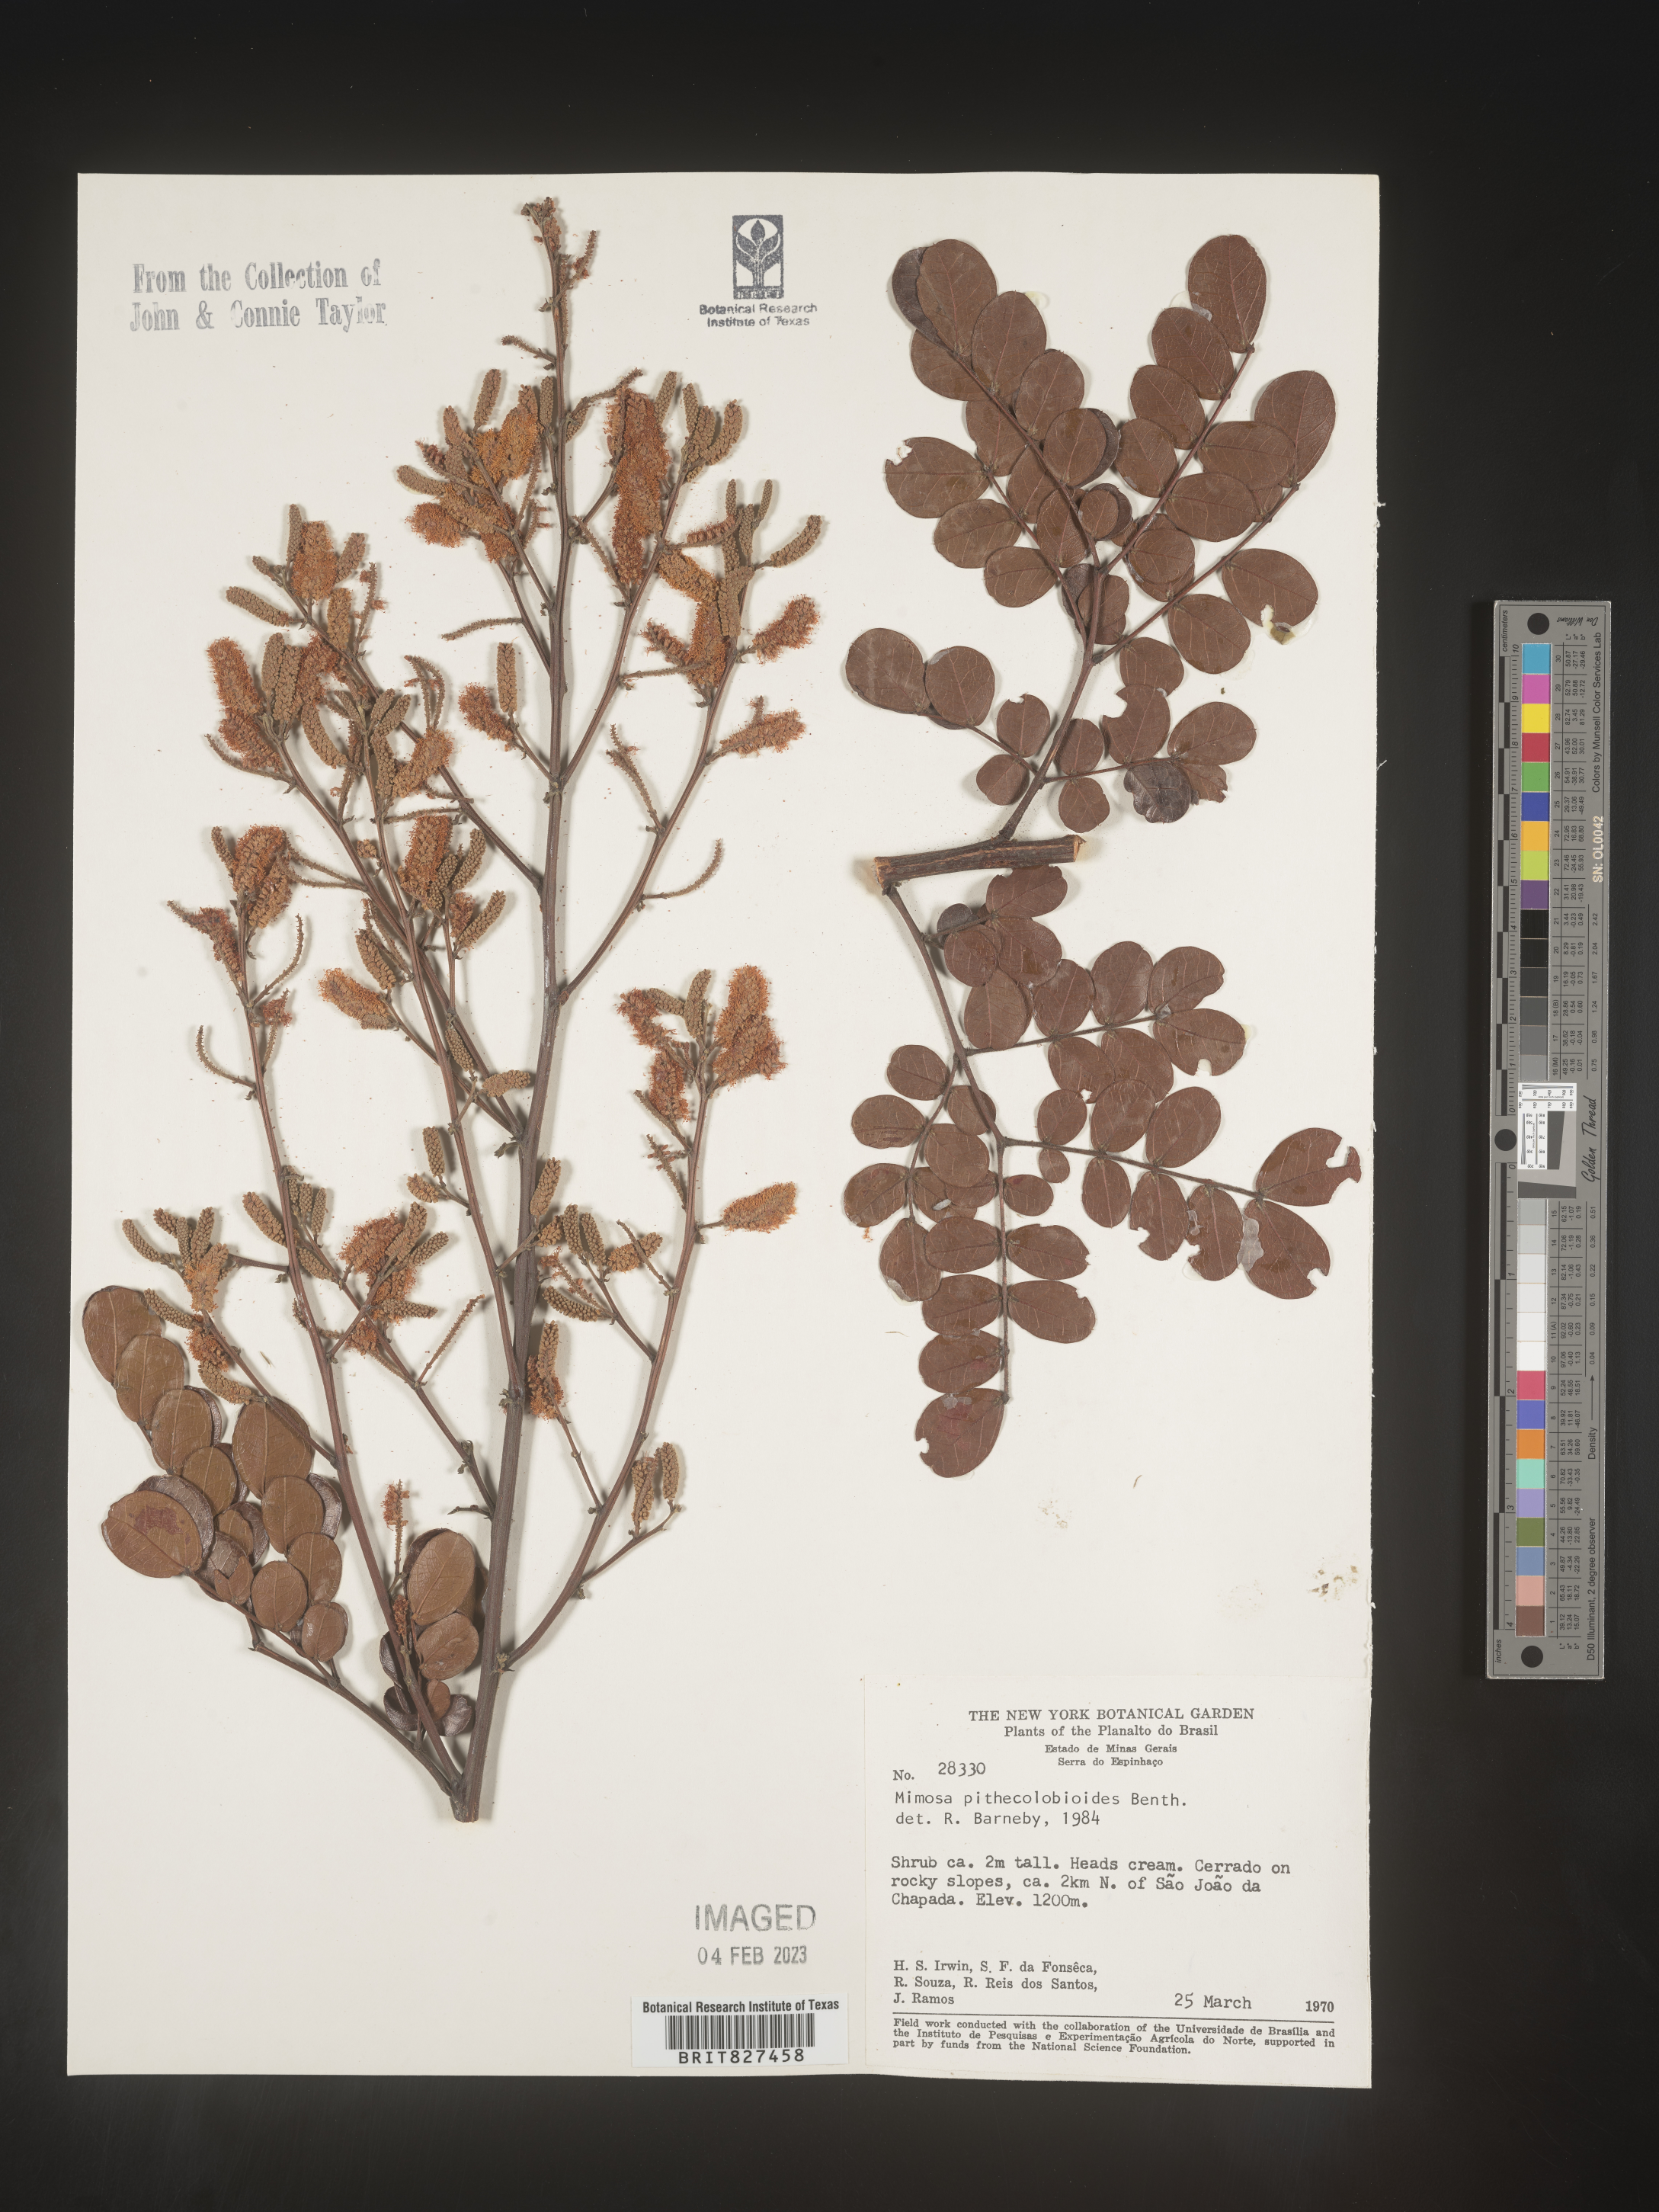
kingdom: Plantae
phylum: Tracheophyta
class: Magnoliopsida
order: Fabales
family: Fabaceae
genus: Mimosa
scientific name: Mimosa
